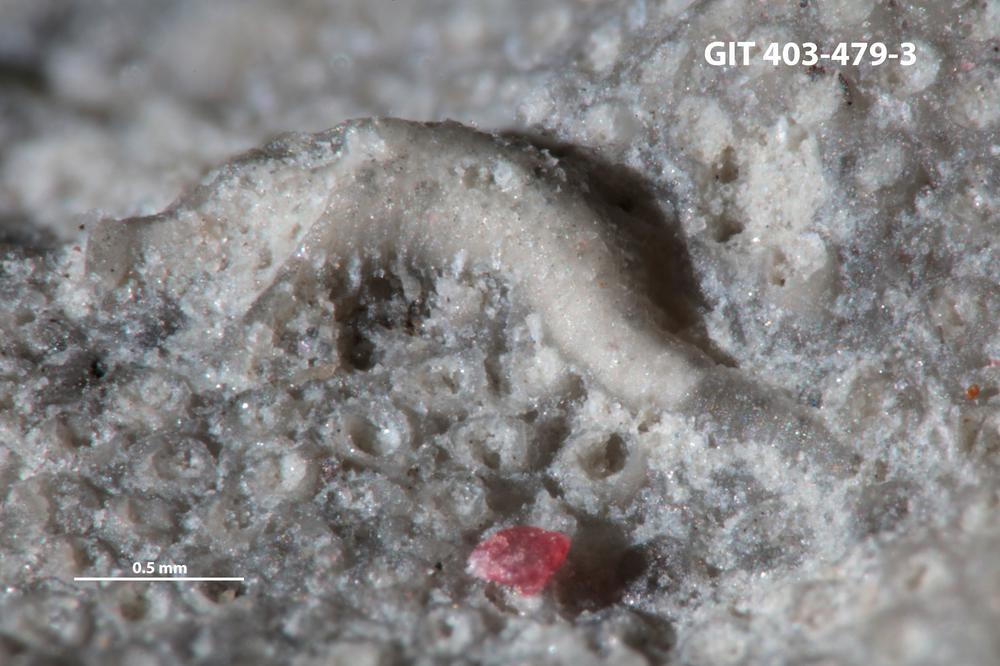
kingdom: Animalia
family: Cornulitidae
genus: Conchicolites
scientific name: Conchicolites
